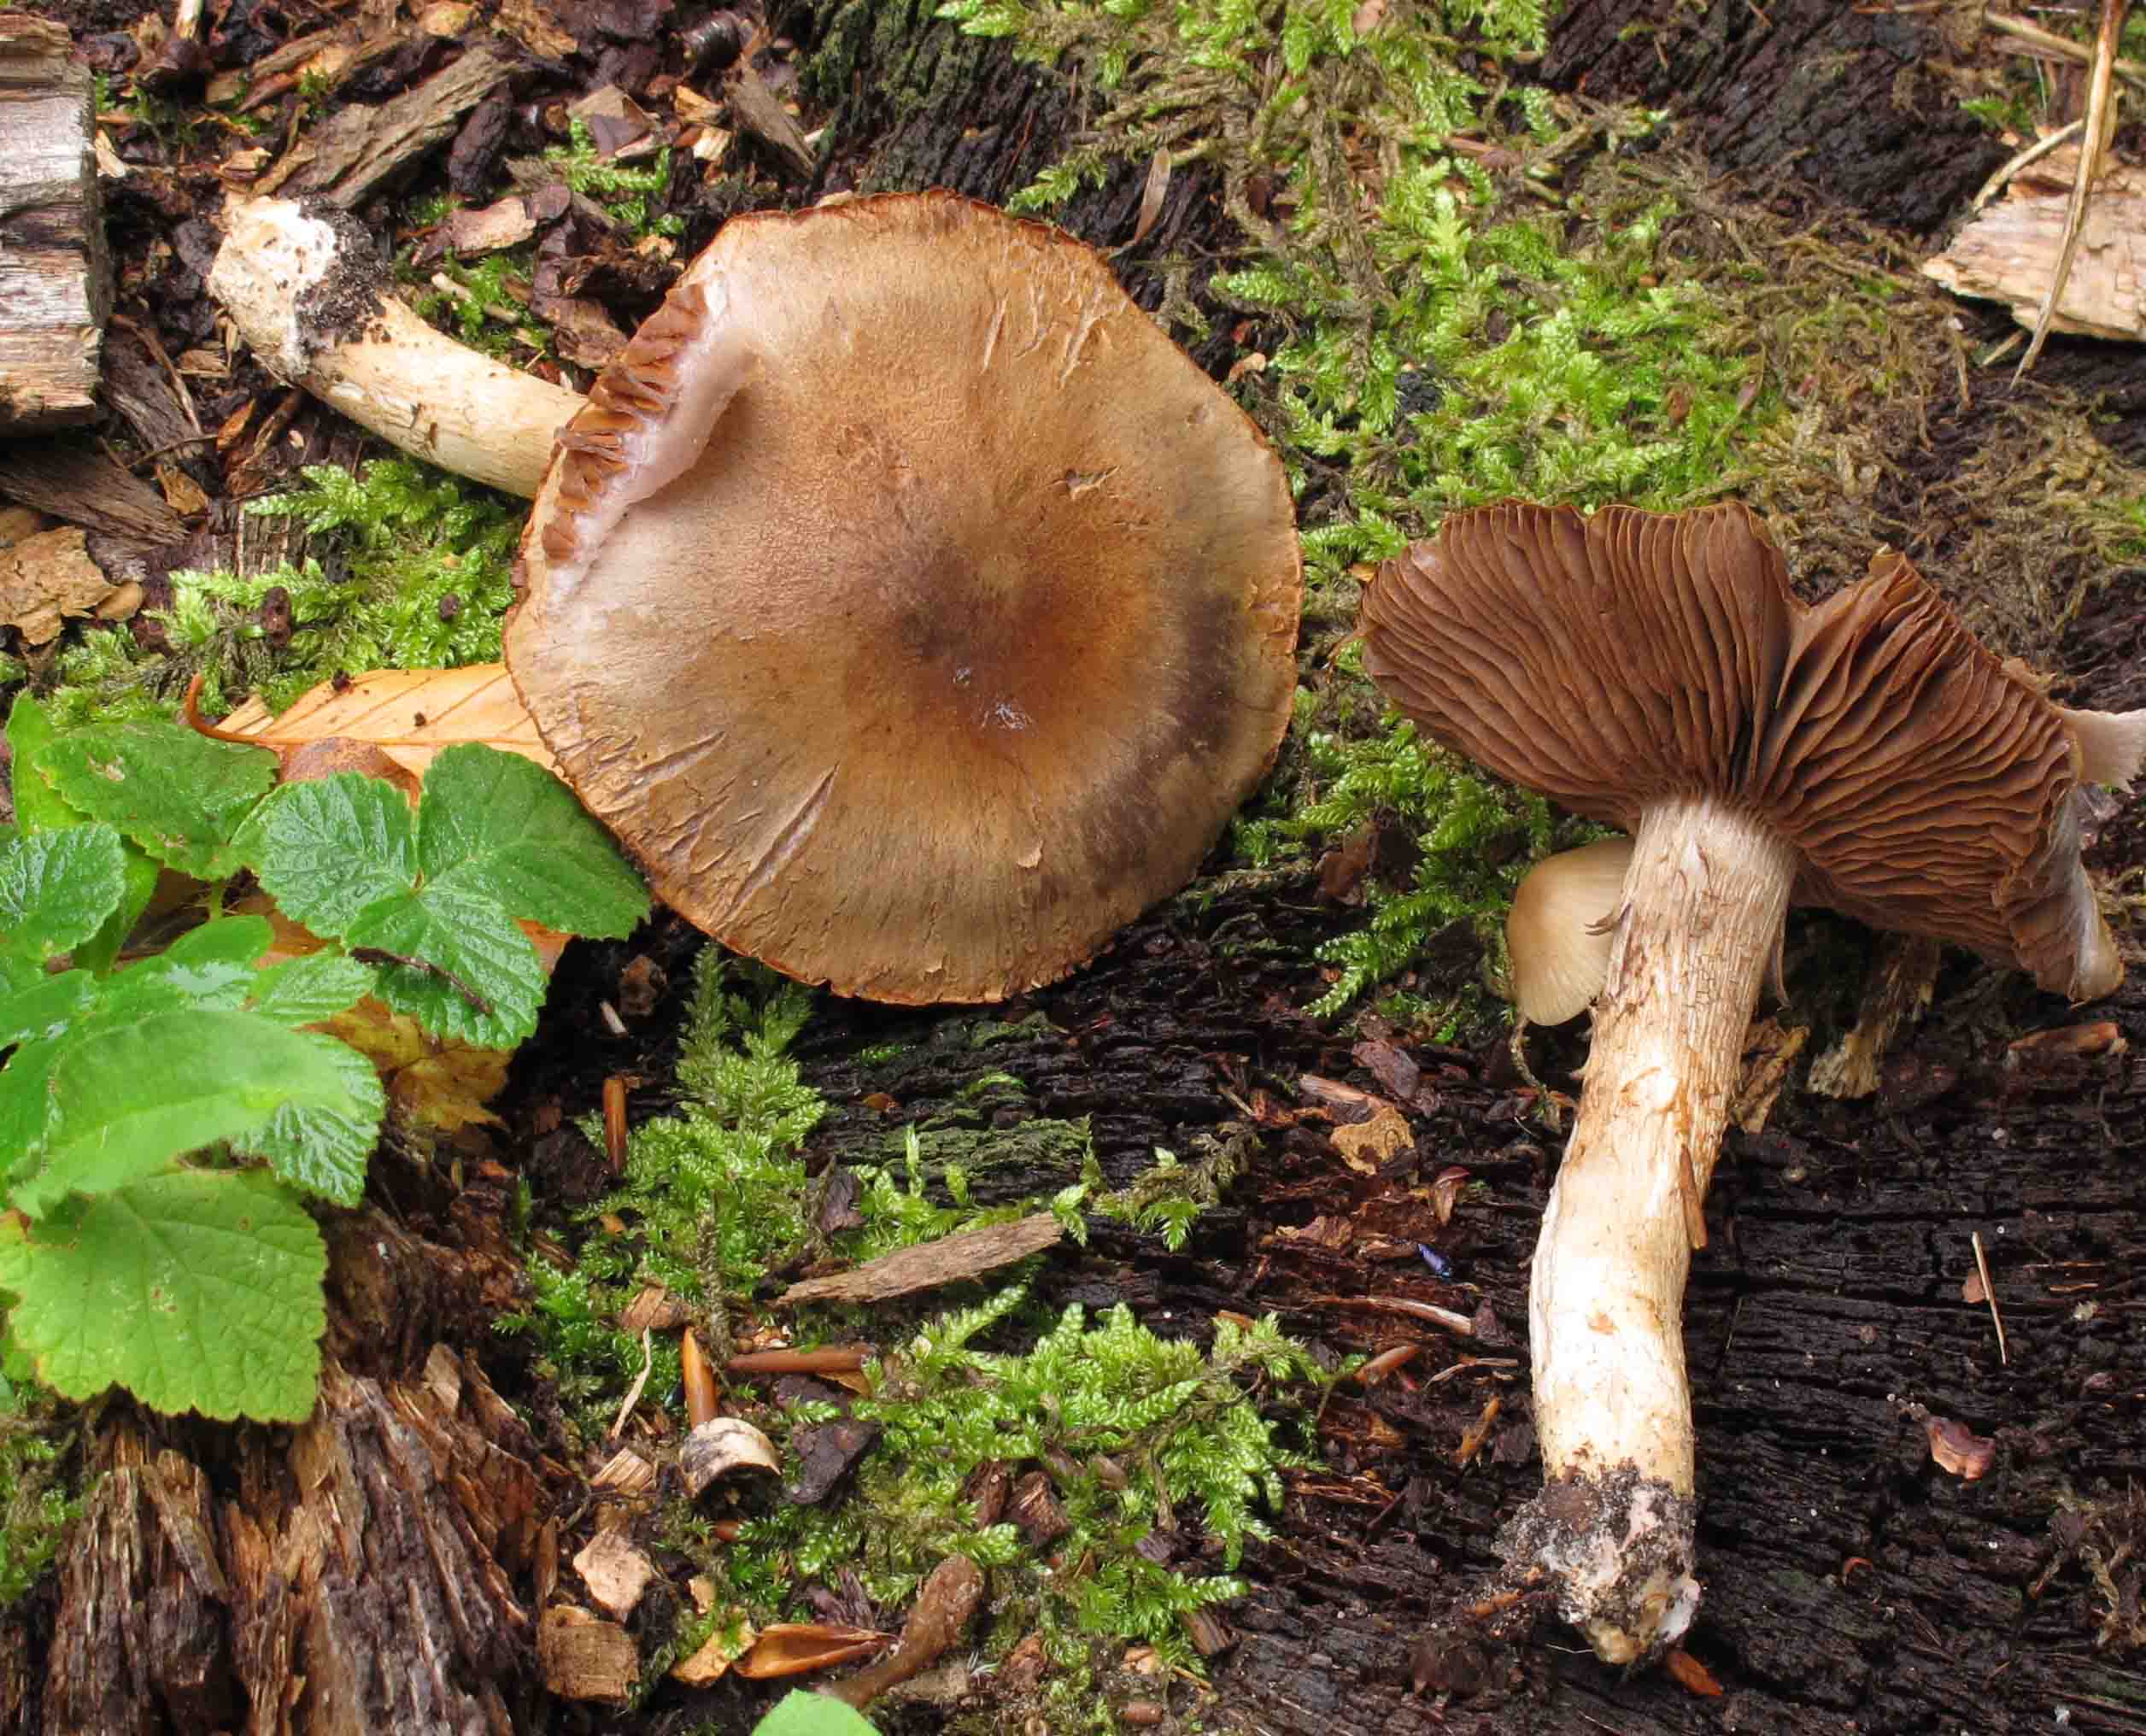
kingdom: Fungi
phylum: Basidiomycota
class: Agaricomycetes
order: Agaricales
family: Cortinariaceae
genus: Cortinarius
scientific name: Cortinarius
